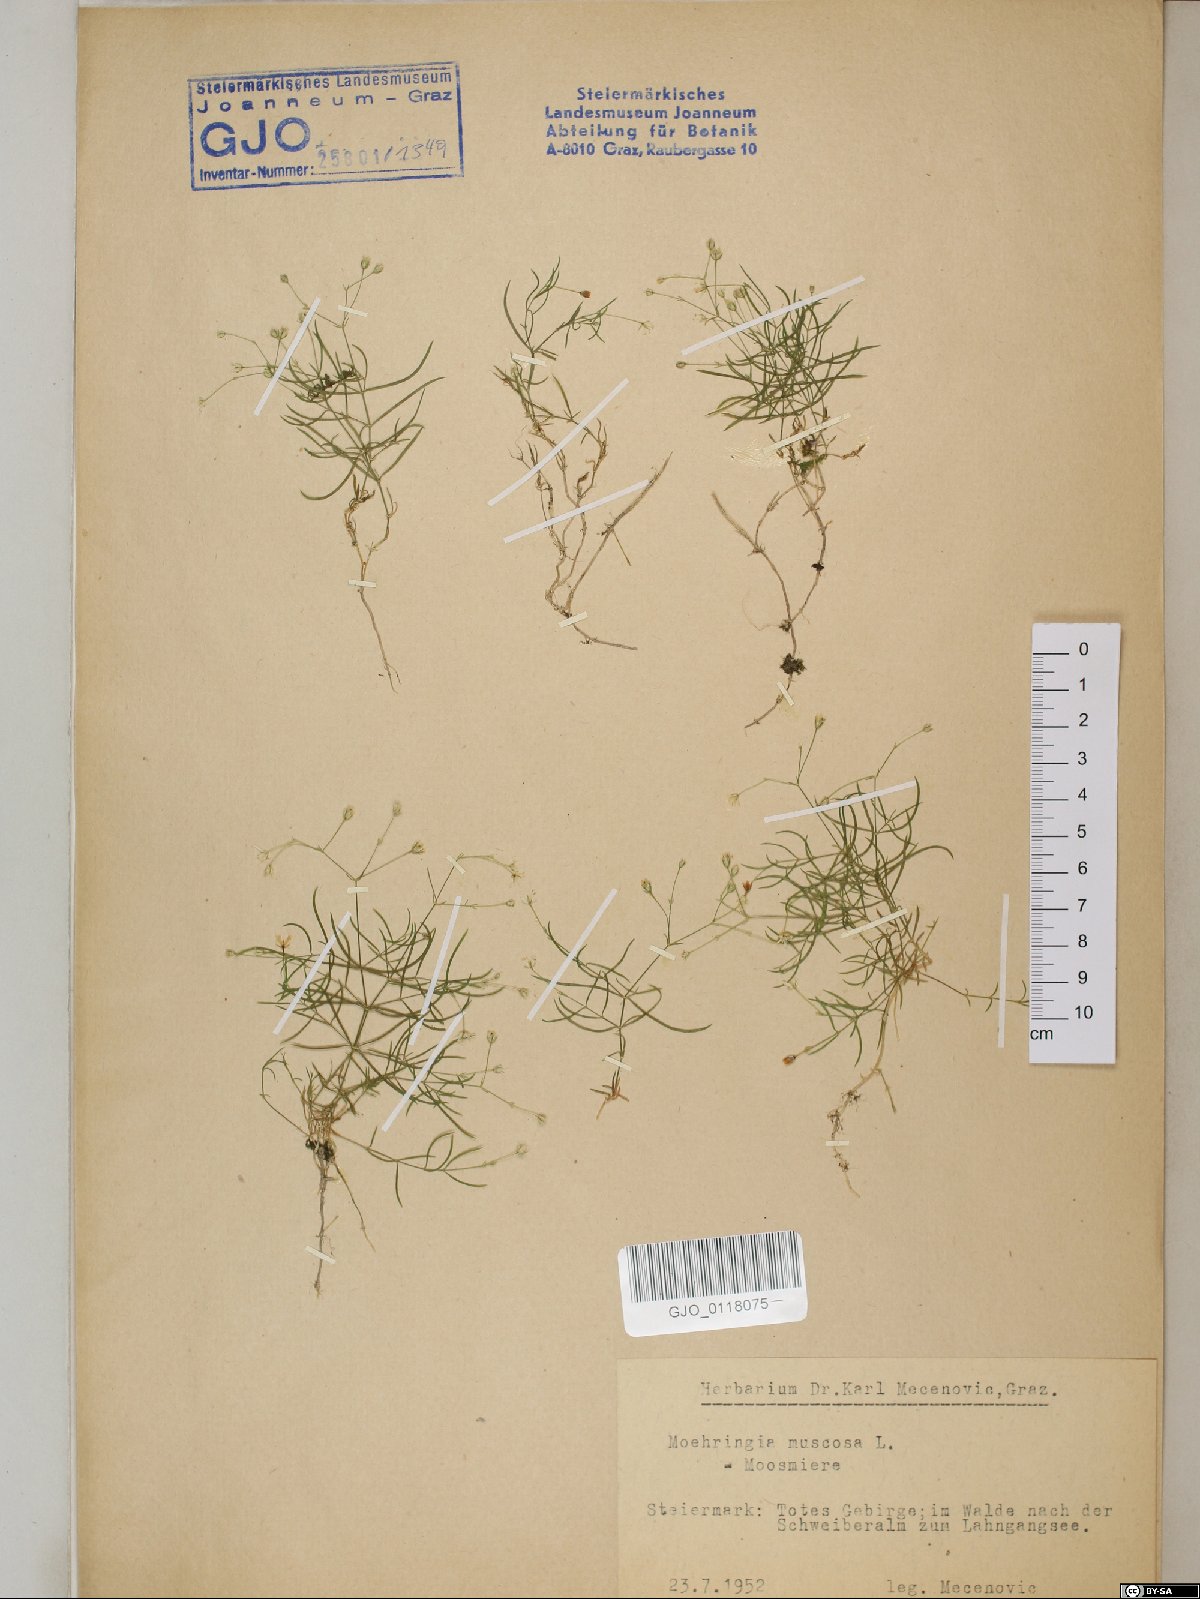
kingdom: Plantae
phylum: Tracheophyta
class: Magnoliopsida
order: Caryophyllales
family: Caryophyllaceae
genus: Moehringia
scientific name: Moehringia muscosa
